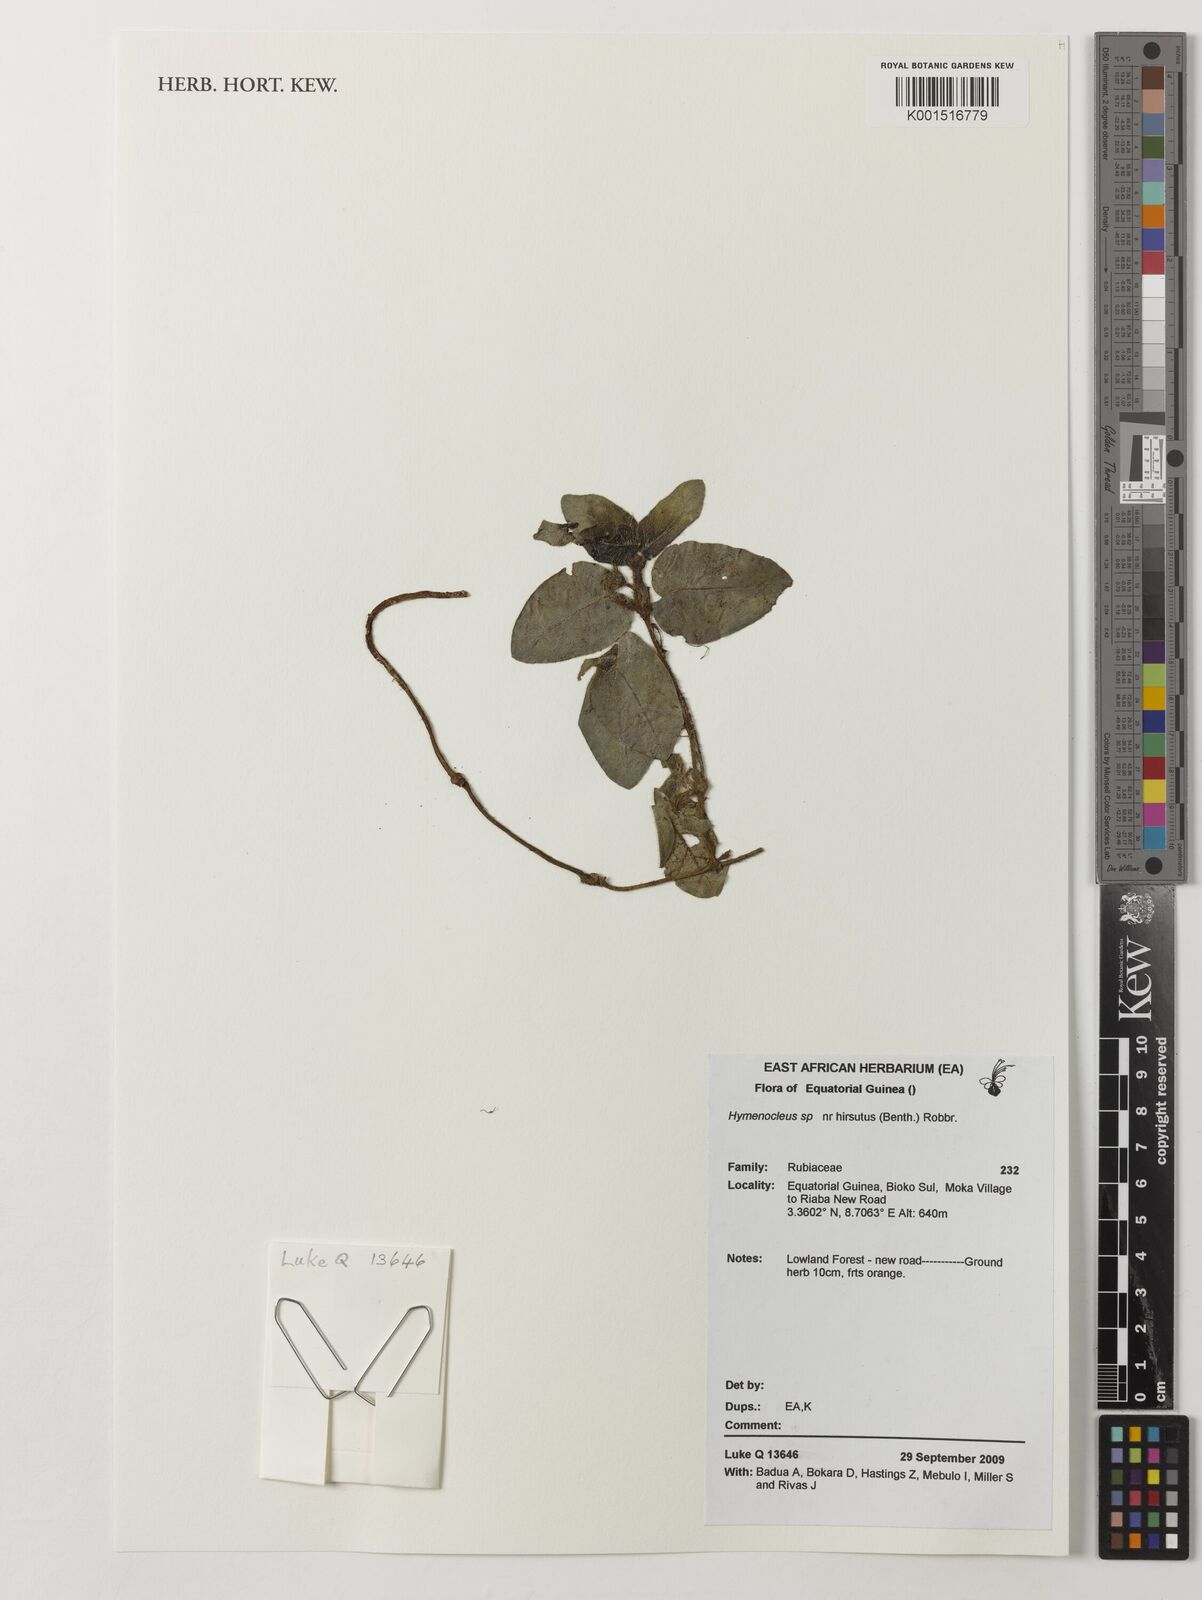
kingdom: Plantae
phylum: Tracheophyta
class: Magnoliopsida
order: Gentianales
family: Rubiaceae
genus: Hymenocoleus
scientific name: Hymenocoleus hirsutus
